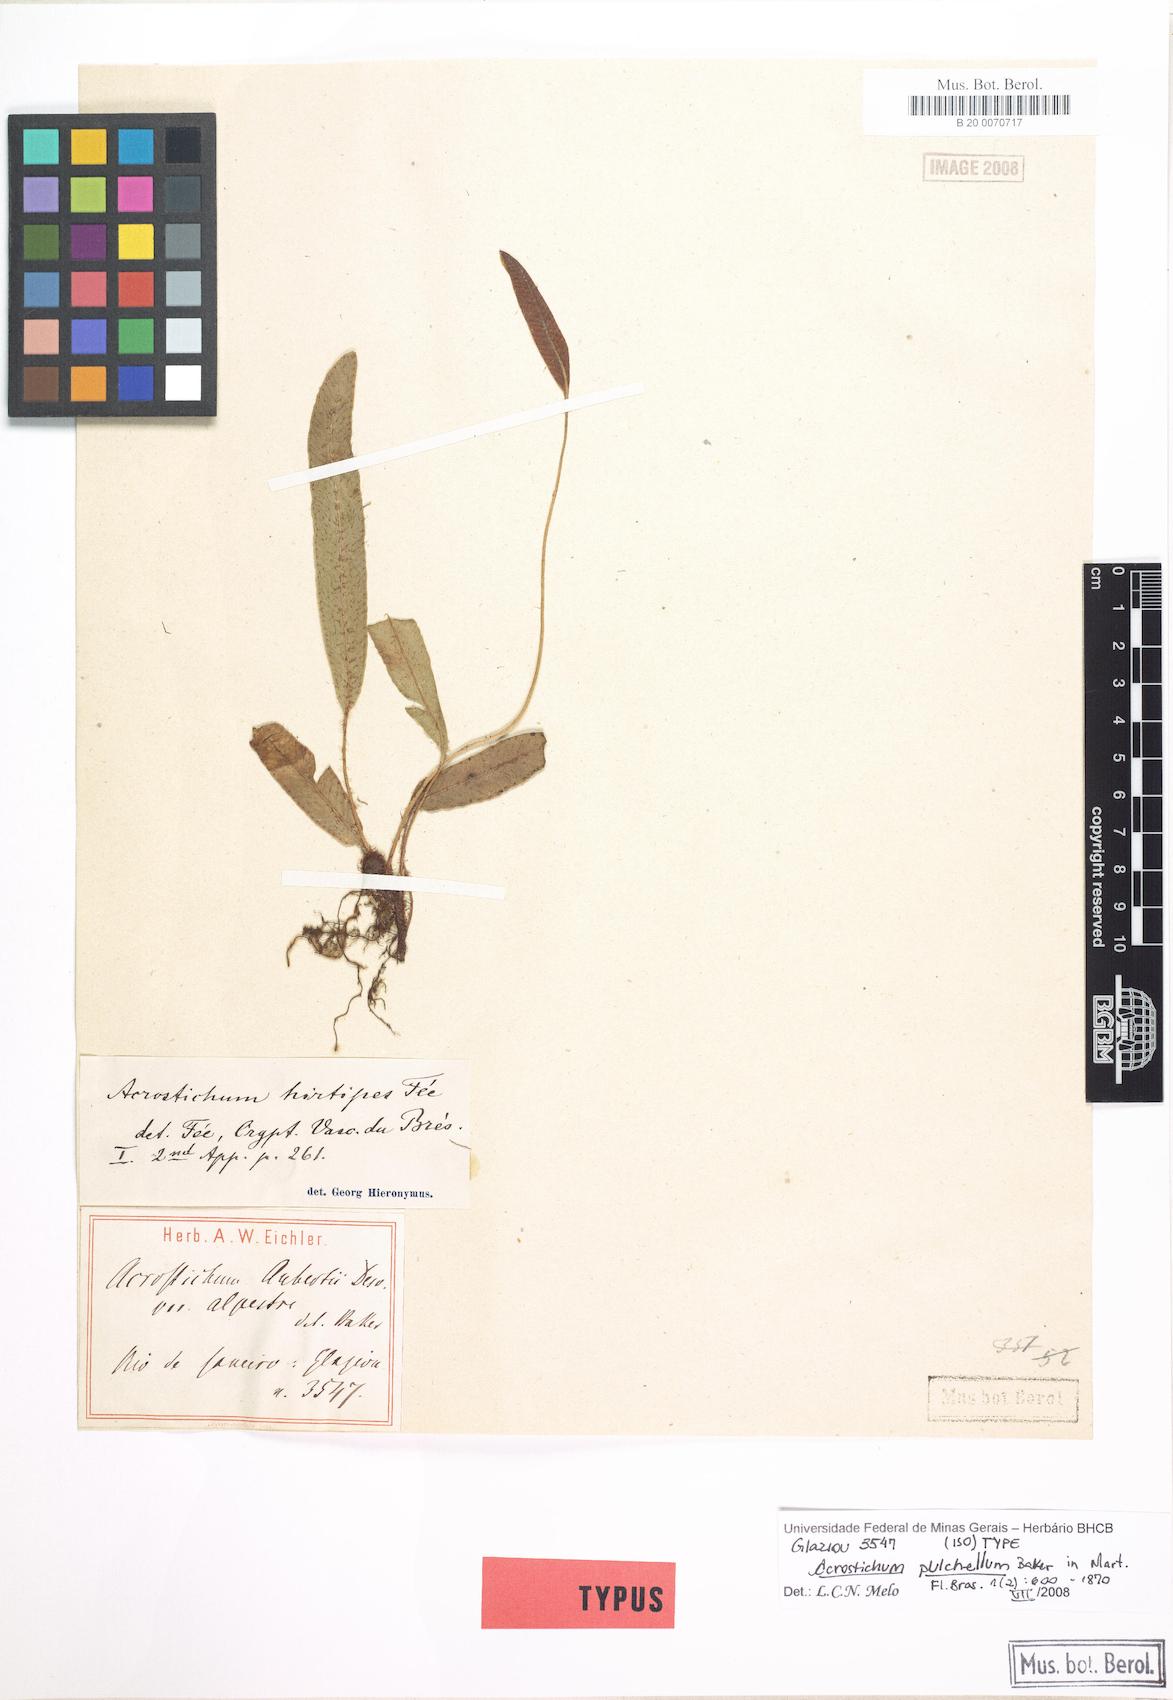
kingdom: Plantae
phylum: Tracheophyta
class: Polypodiopsida
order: Polypodiales
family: Dryopteridaceae
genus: Elaphoglossum
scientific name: Elaphoglossum alpestre
